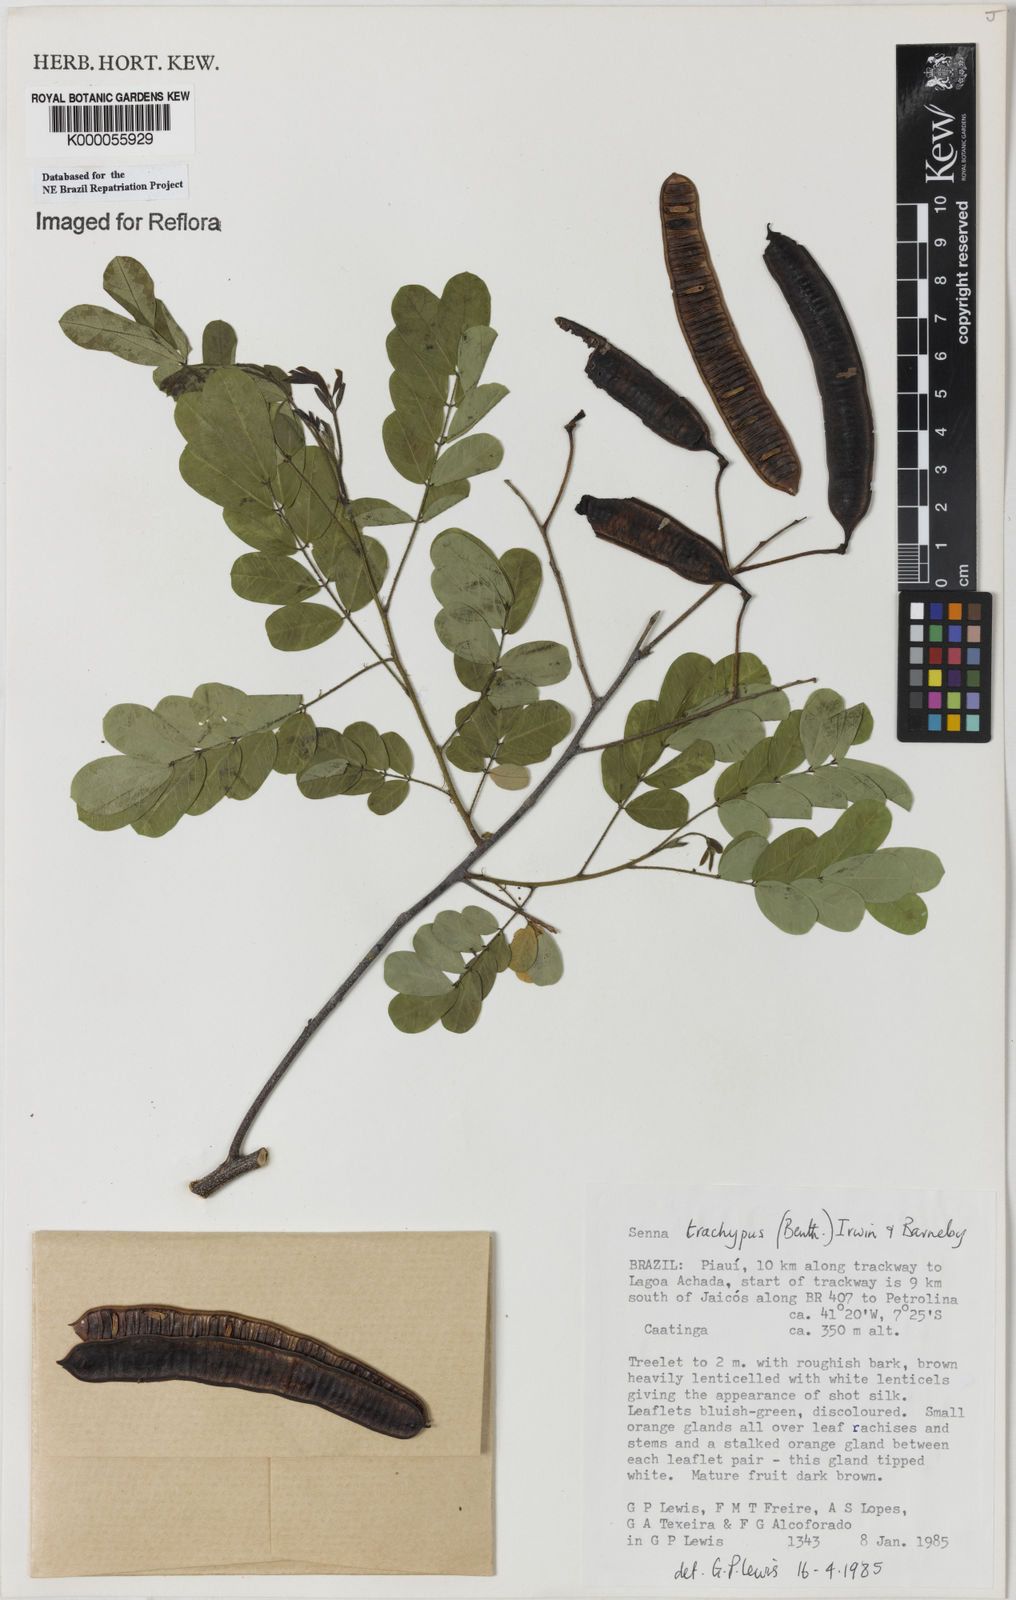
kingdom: Plantae
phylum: Tracheophyta
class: Magnoliopsida
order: Fabales
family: Fabaceae
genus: Senna
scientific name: Senna trachypus
